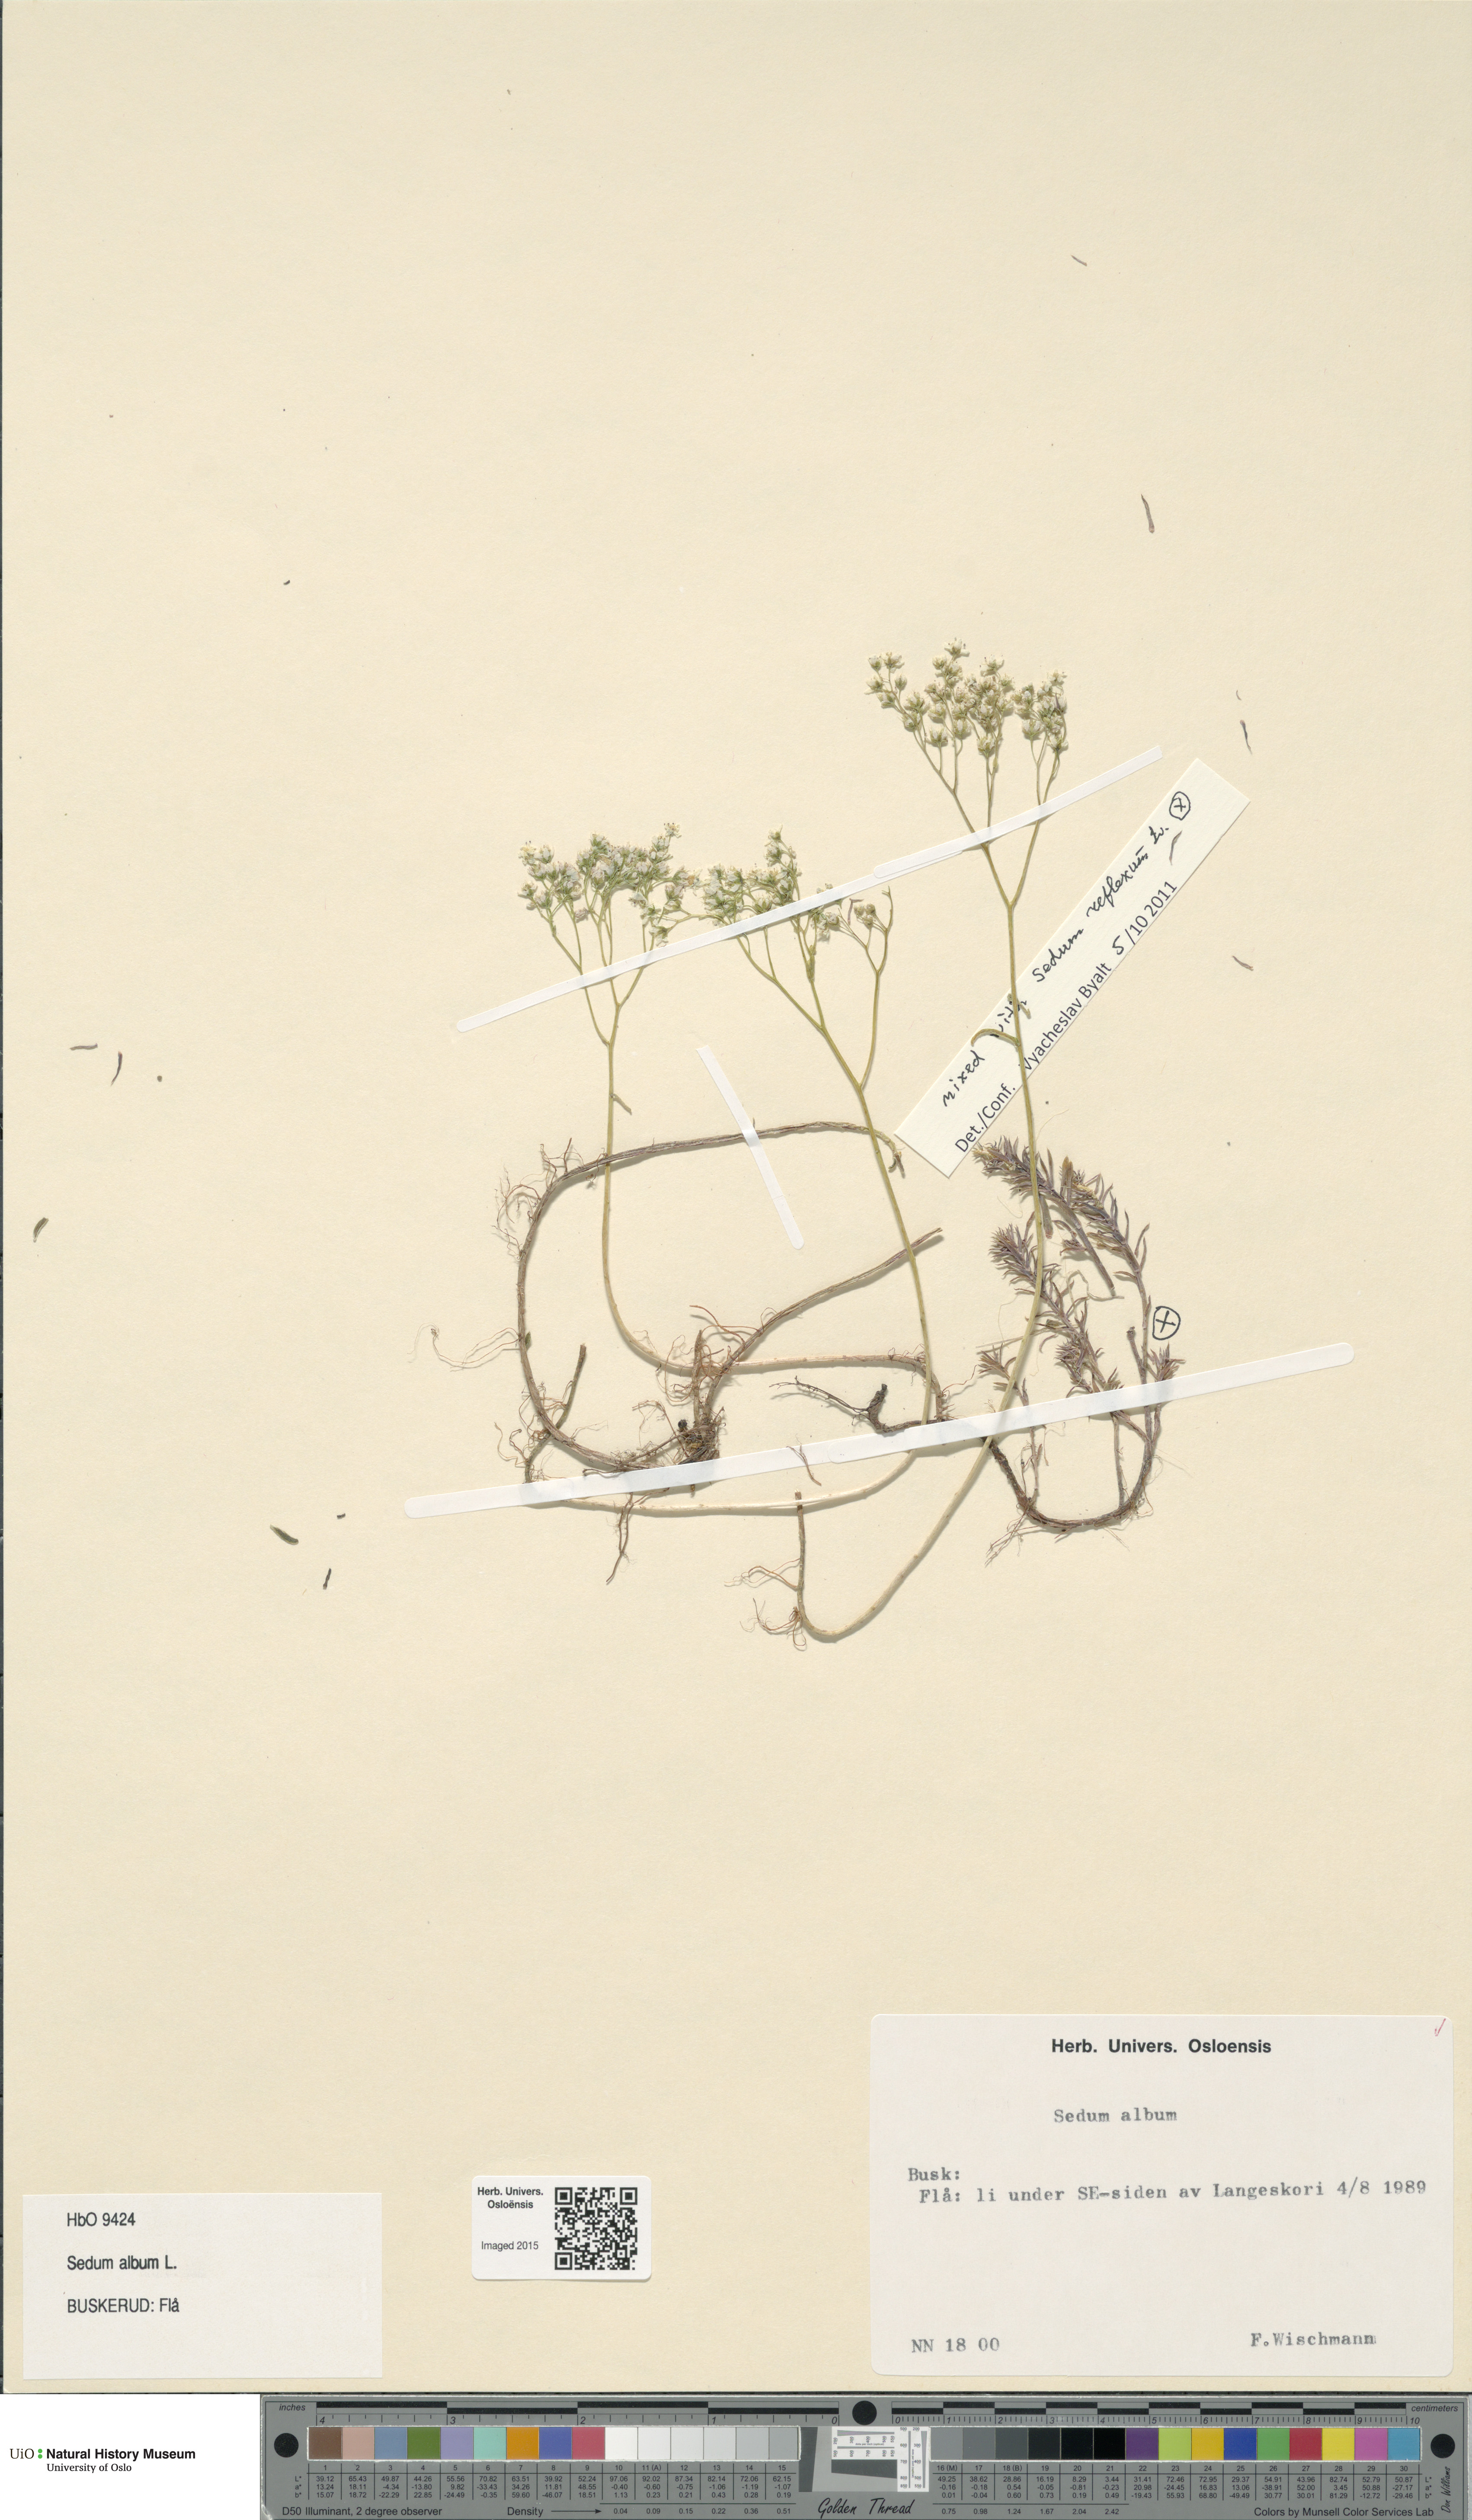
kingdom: Plantae
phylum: Tracheophyta
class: Magnoliopsida
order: Saxifragales
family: Crassulaceae
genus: Sedum
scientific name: Sedum album
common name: White stonecrop
